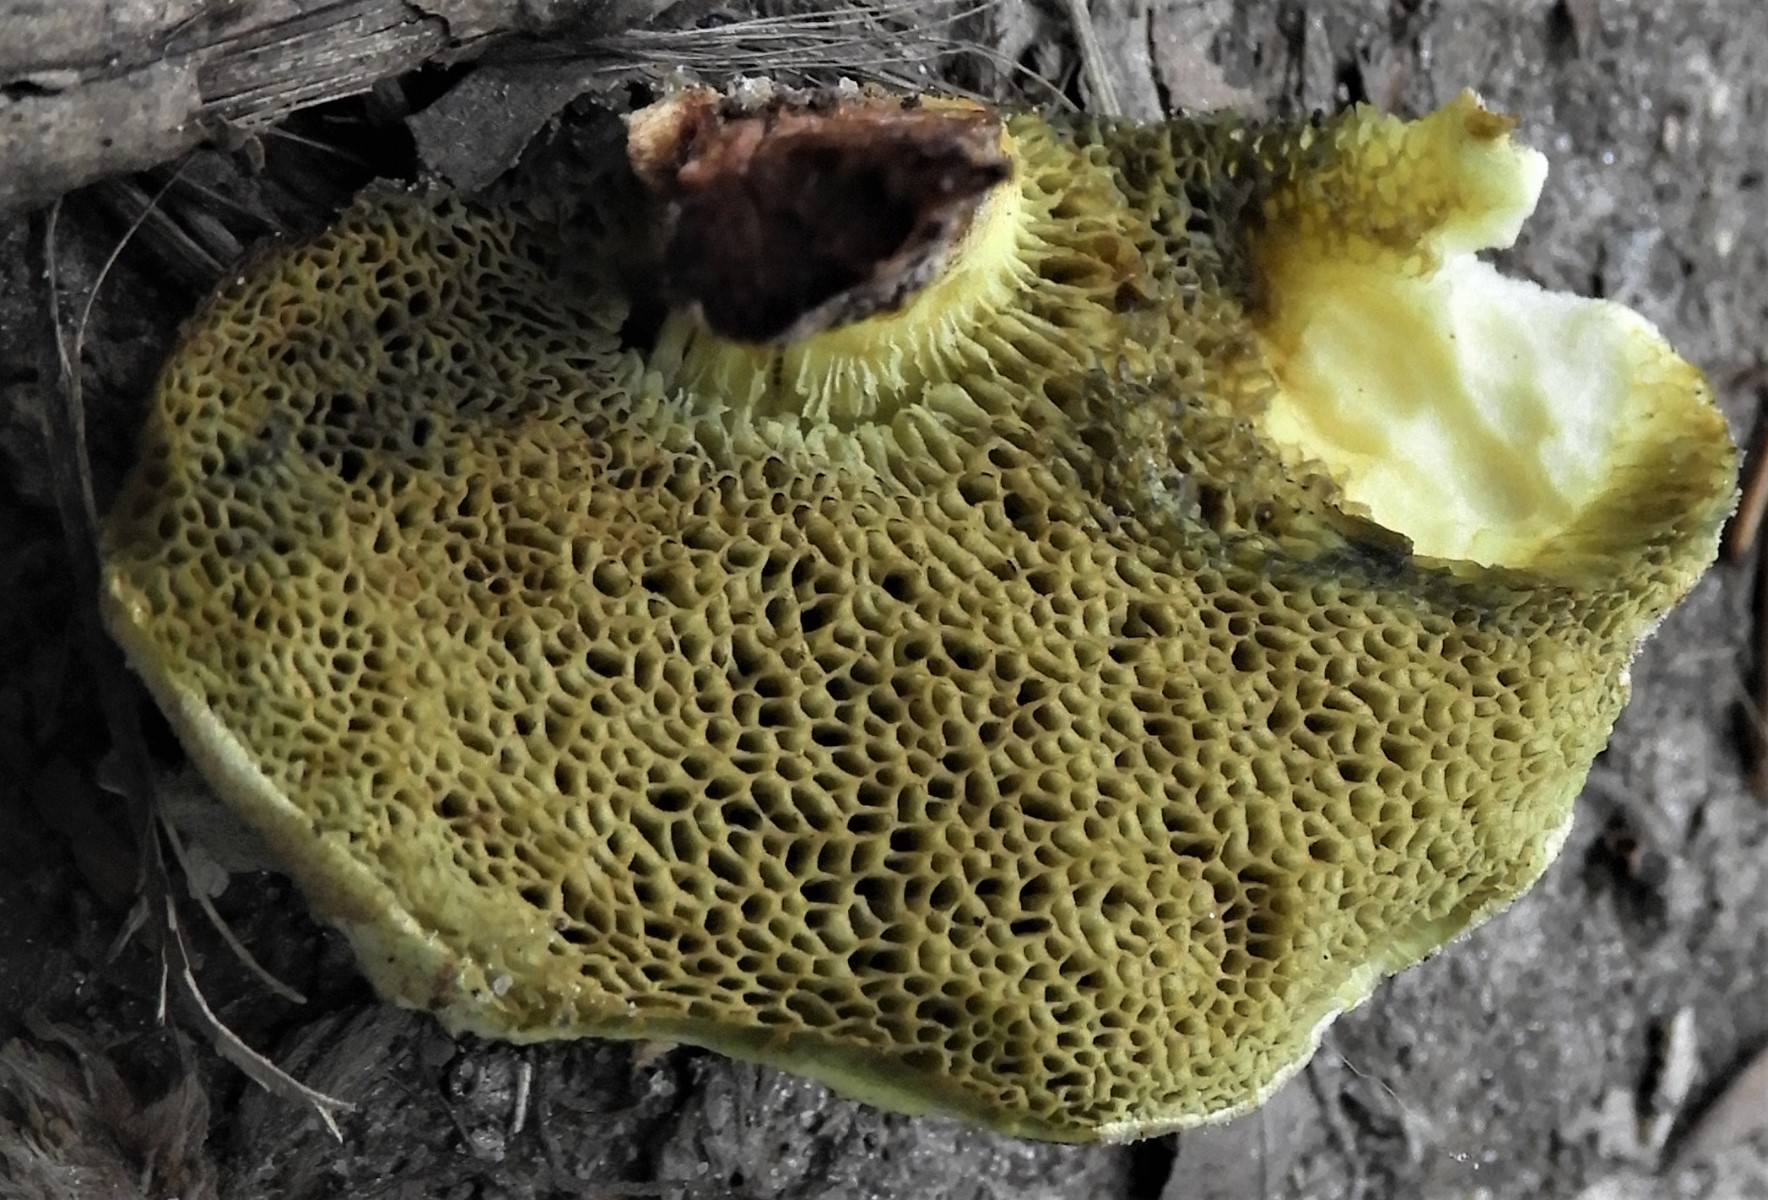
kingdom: Fungi
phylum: Basidiomycota
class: Agaricomycetes
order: Boletales
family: Boletaceae
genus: Xerocomellus
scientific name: Xerocomellus chrysenteron
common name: rødsprukken rørhat
